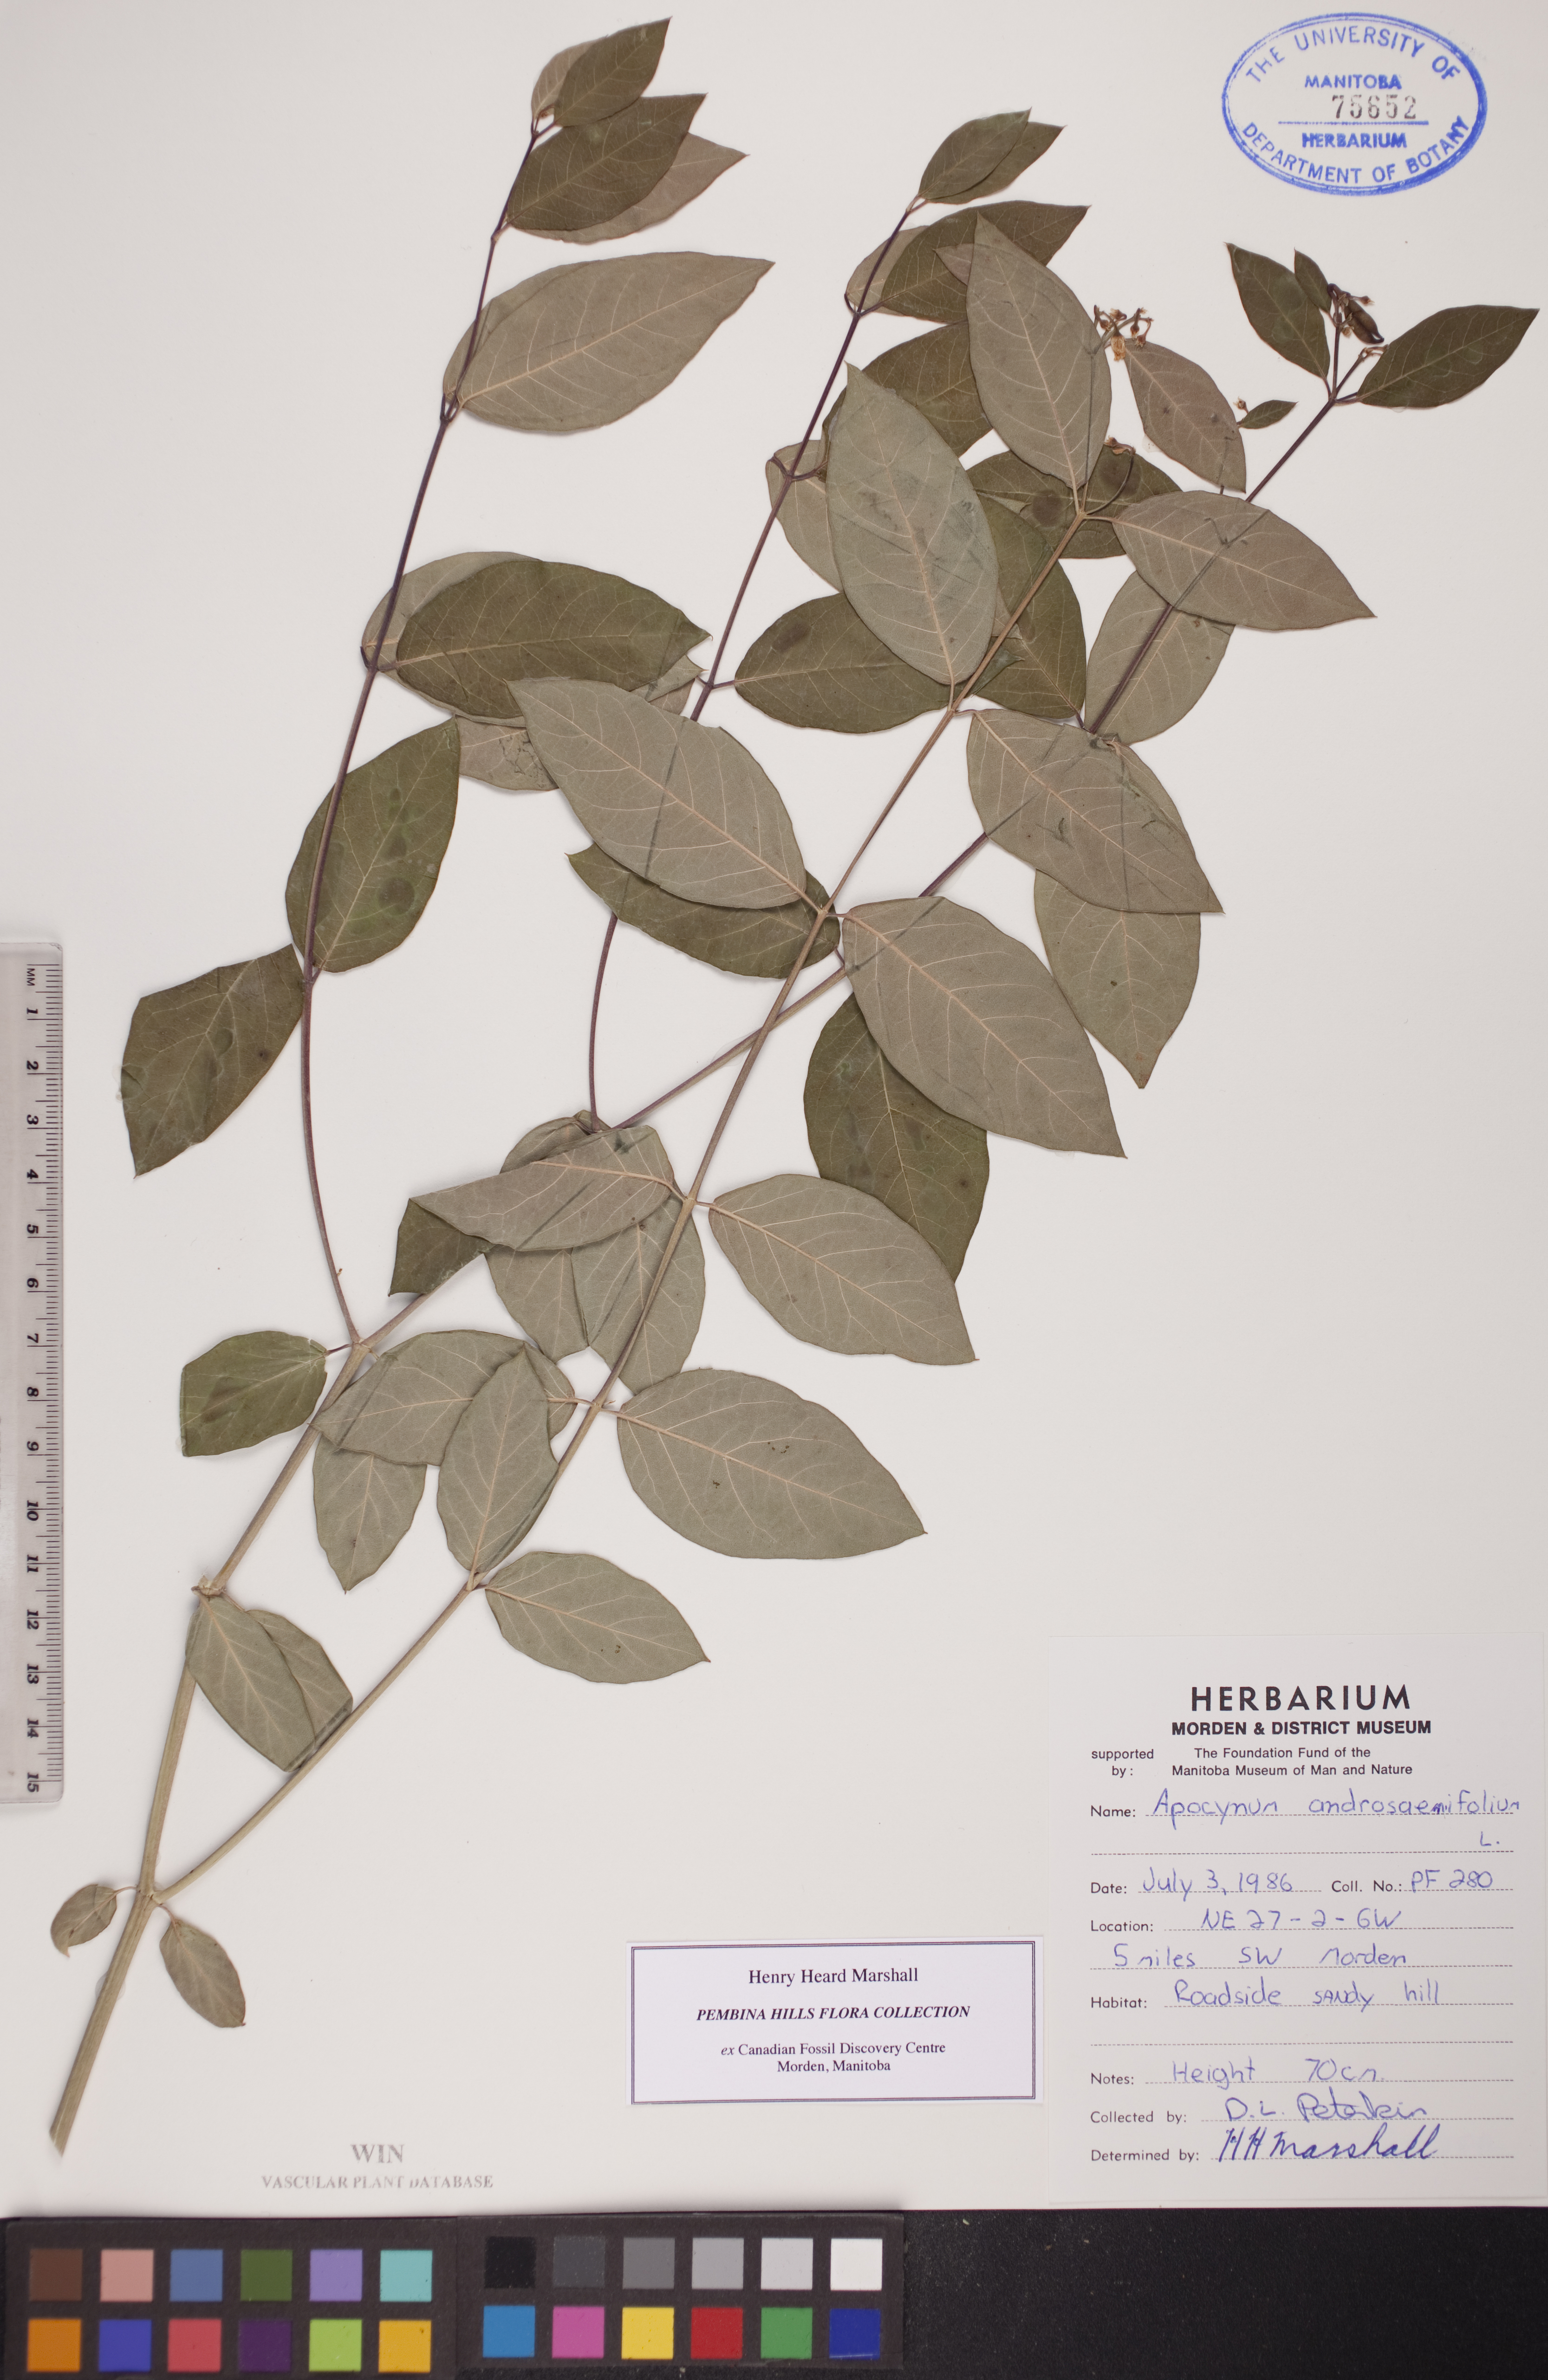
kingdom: Plantae
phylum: Tracheophyta
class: Magnoliopsida
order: Gentianales
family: Apocynaceae
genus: Apocynum
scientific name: Apocynum androsaemifolium
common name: Spreading dogbane
